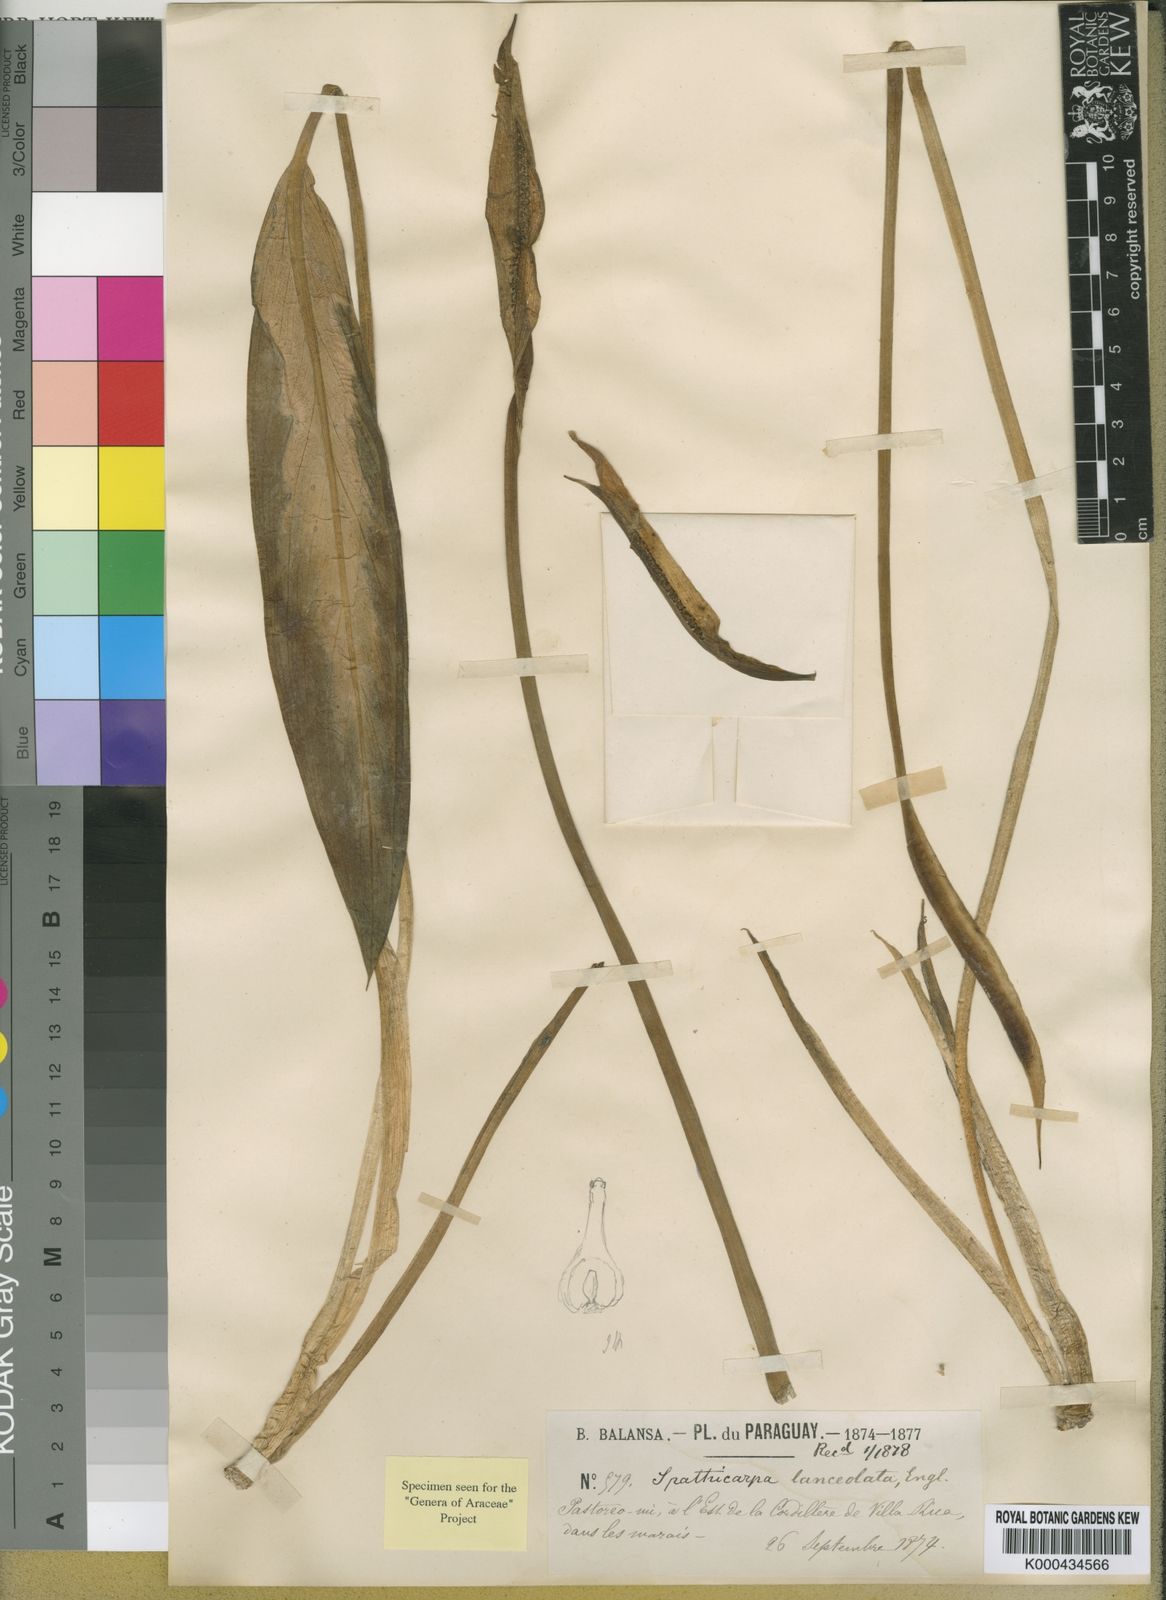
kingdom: Plantae
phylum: Tracheophyta
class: Liliopsida
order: Alismatales
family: Araceae
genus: Spathicarpa
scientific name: Spathicarpa lanceolata
